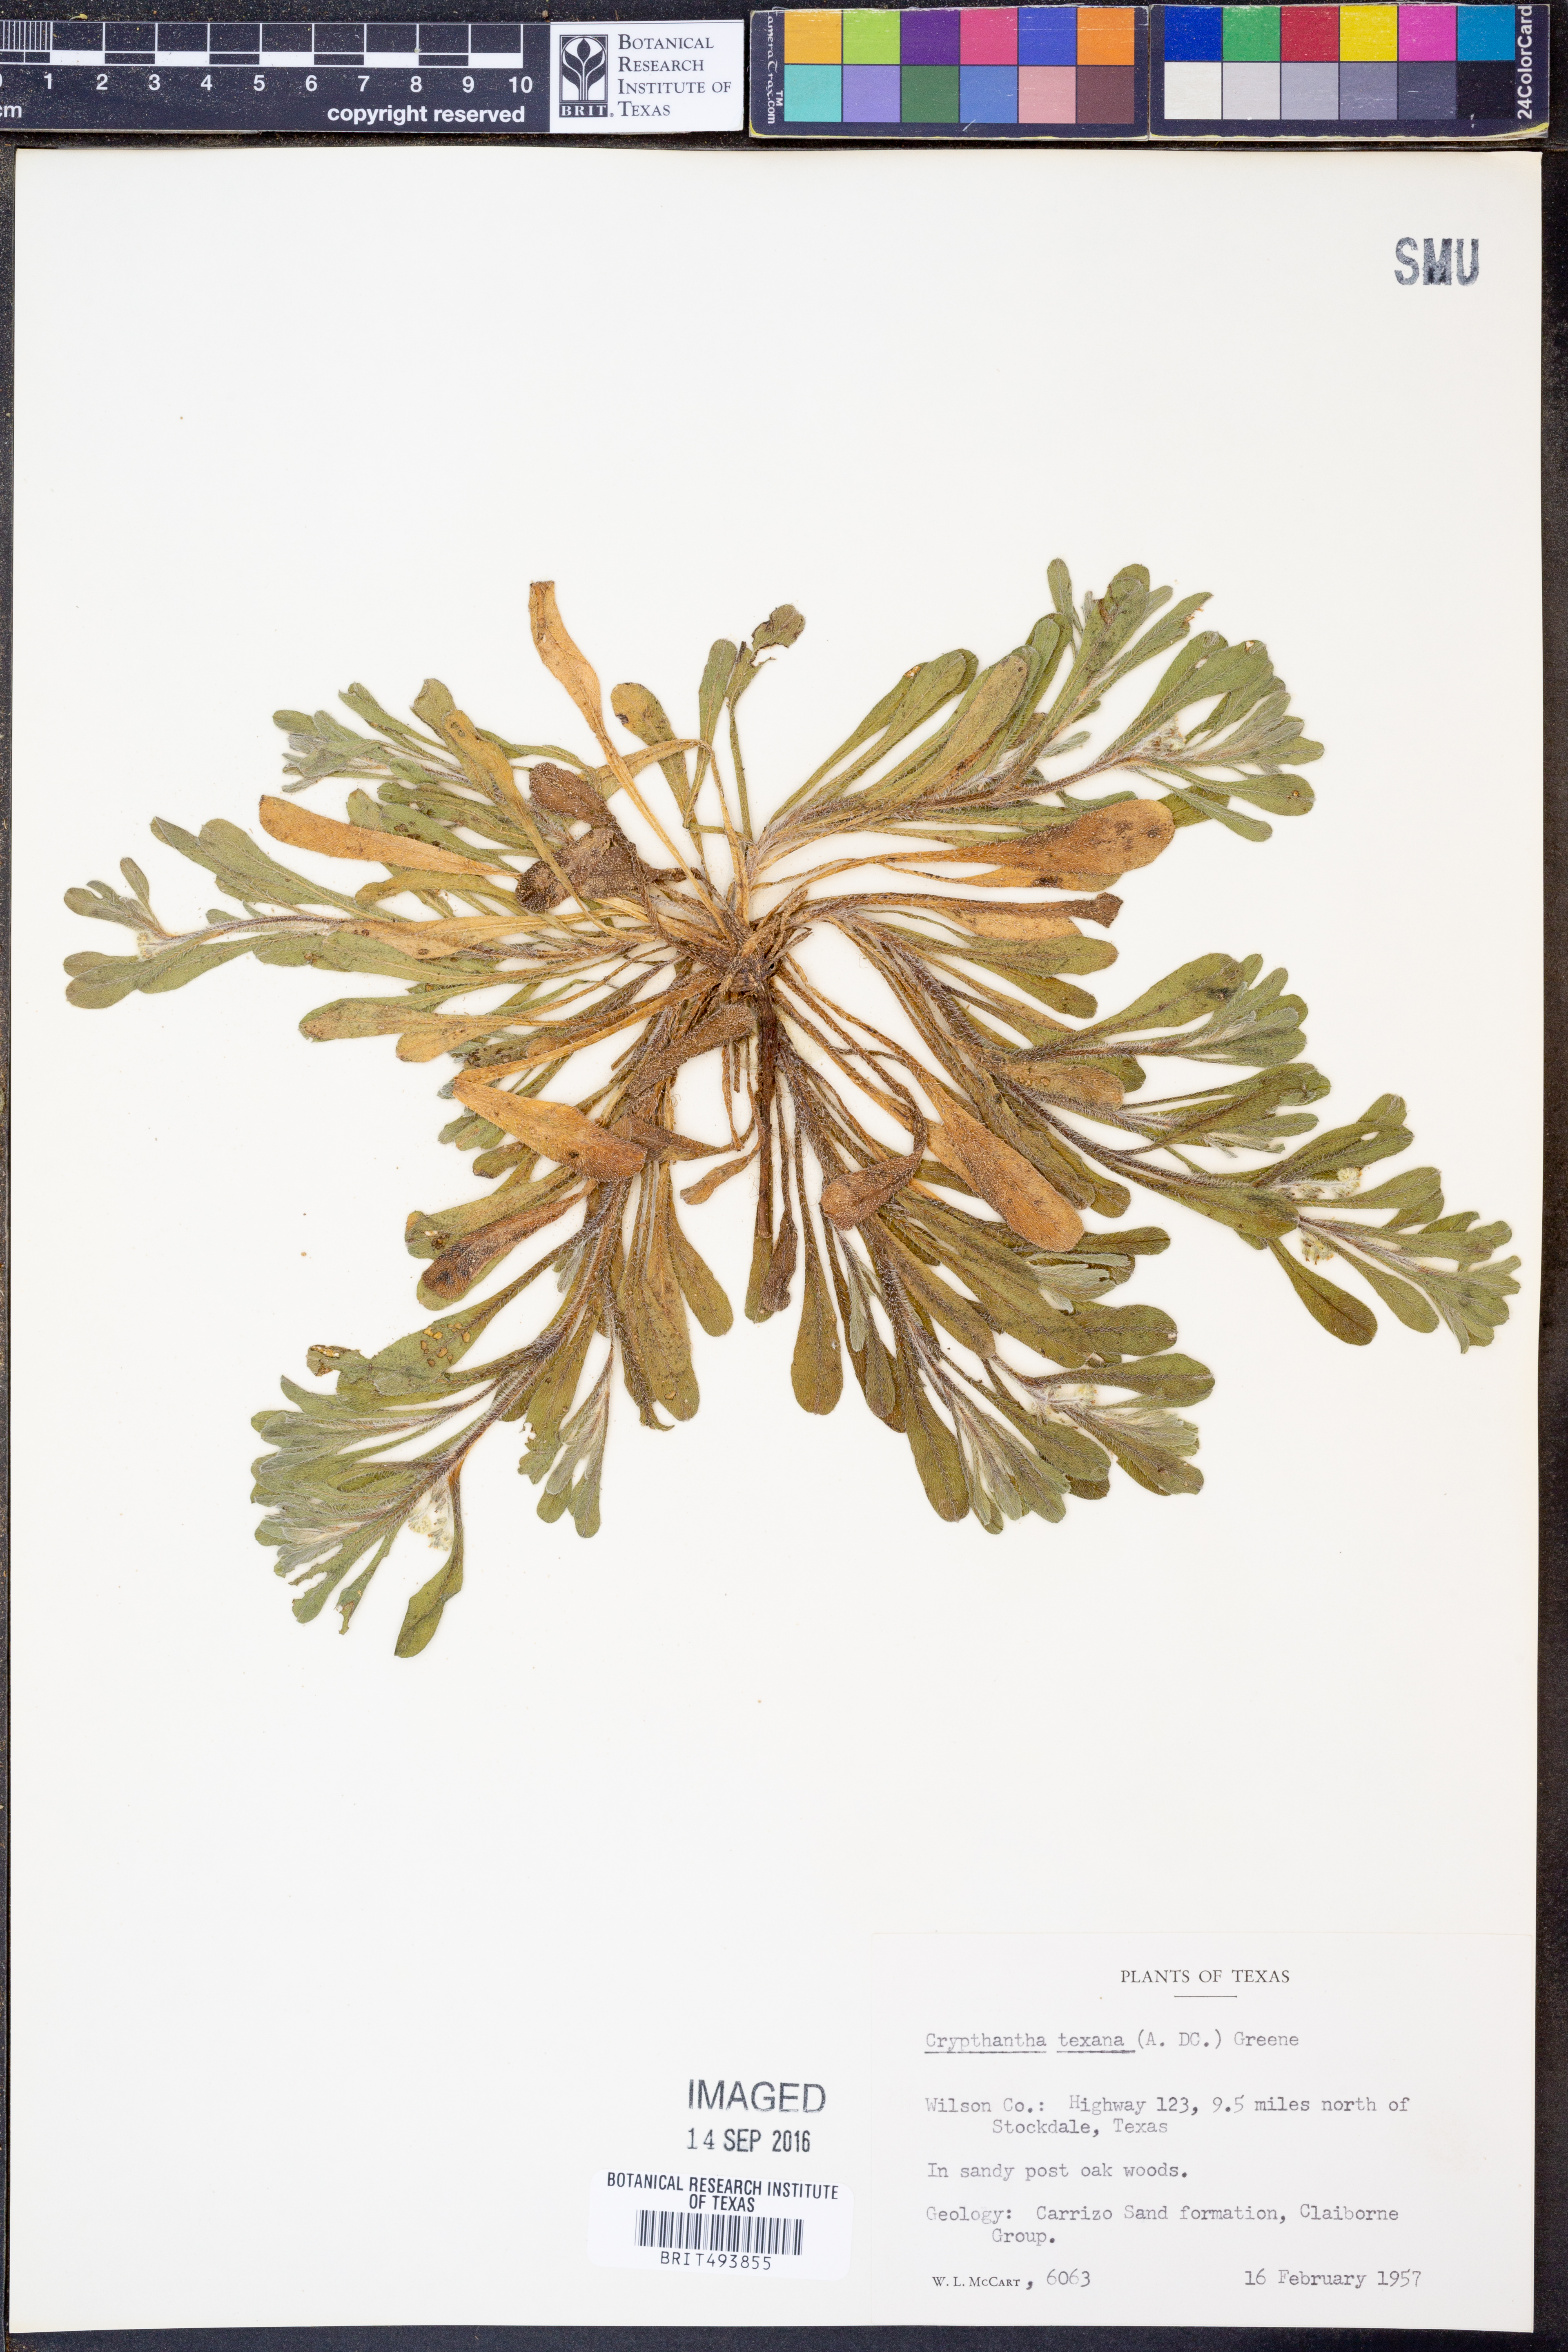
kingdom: Plantae
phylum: Tracheophyta
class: Magnoliopsida
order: Boraginales
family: Boraginaceae
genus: Cryptantha
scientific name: Cryptantha texana
